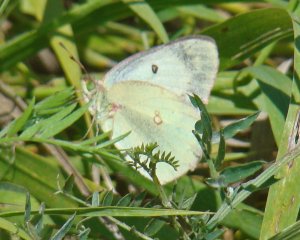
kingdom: Animalia
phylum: Arthropoda
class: Insecta
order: Lepidoptera
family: Pieridae
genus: Colias
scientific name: Colias philodice
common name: Clouded Sulphur
